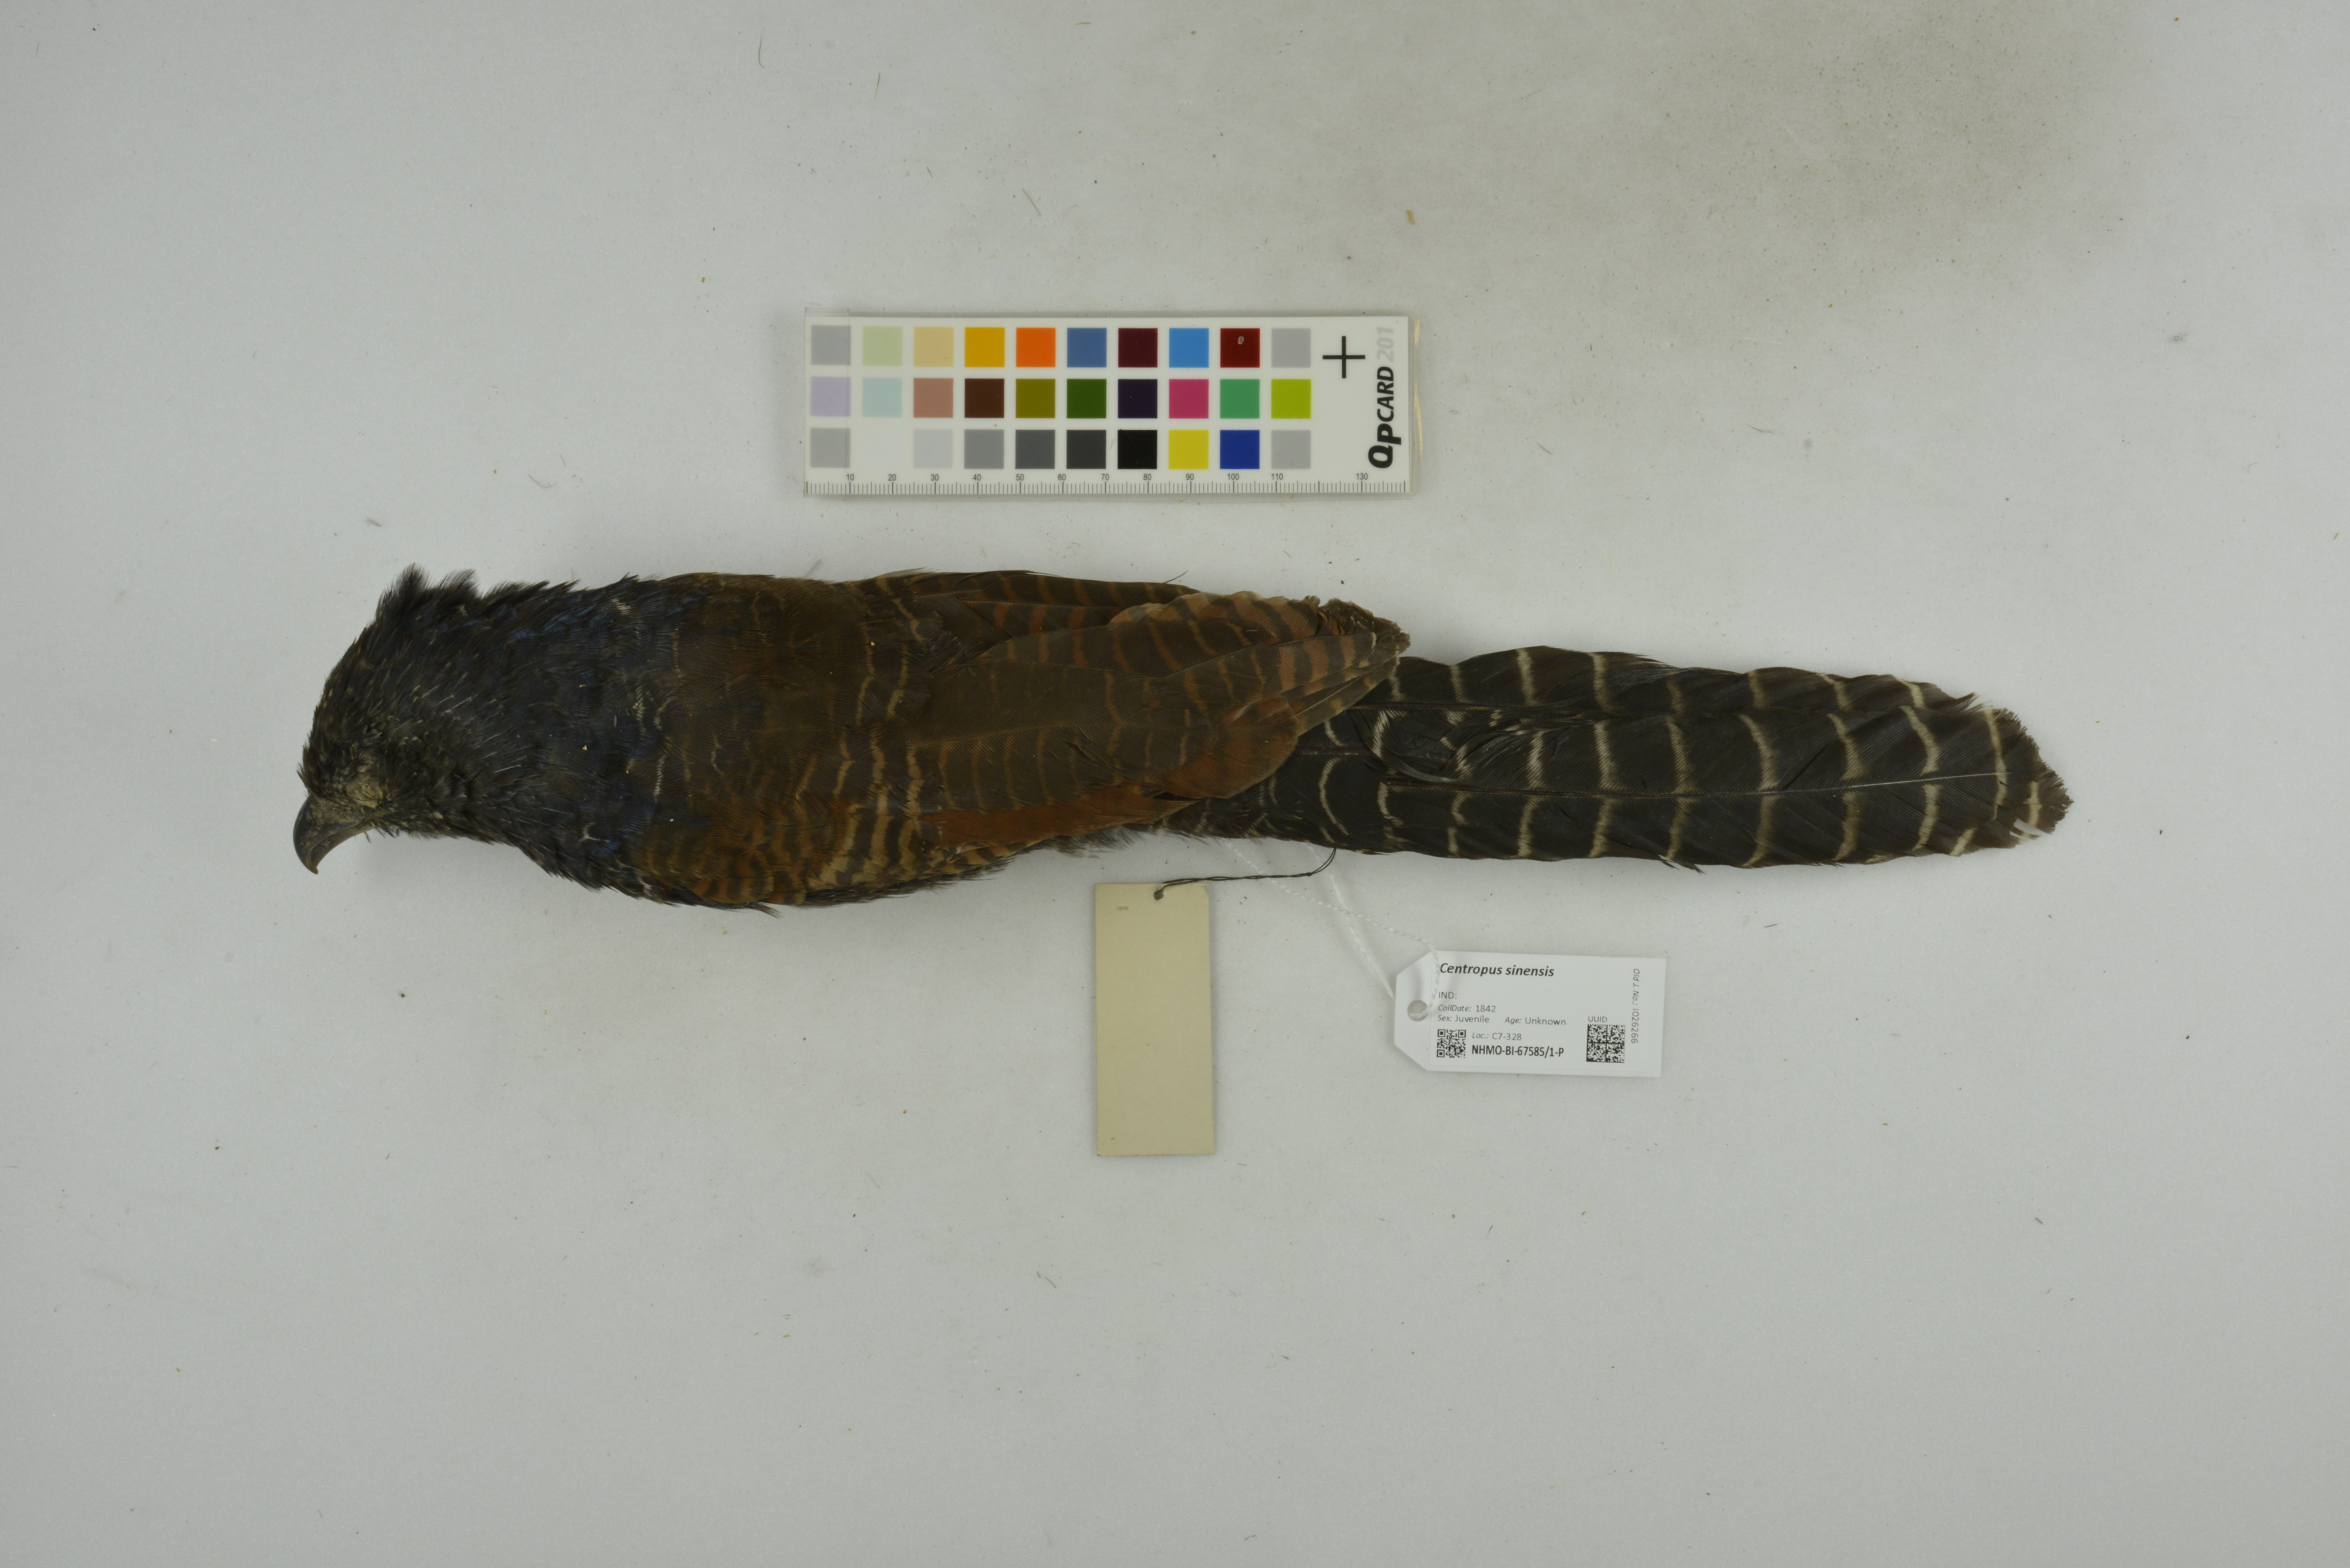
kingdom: Animalia
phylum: Chordata
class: Aves
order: Cuculiformes
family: Cuculidae
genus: Centropus
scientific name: Centropus sinensis
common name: Greater coucal
